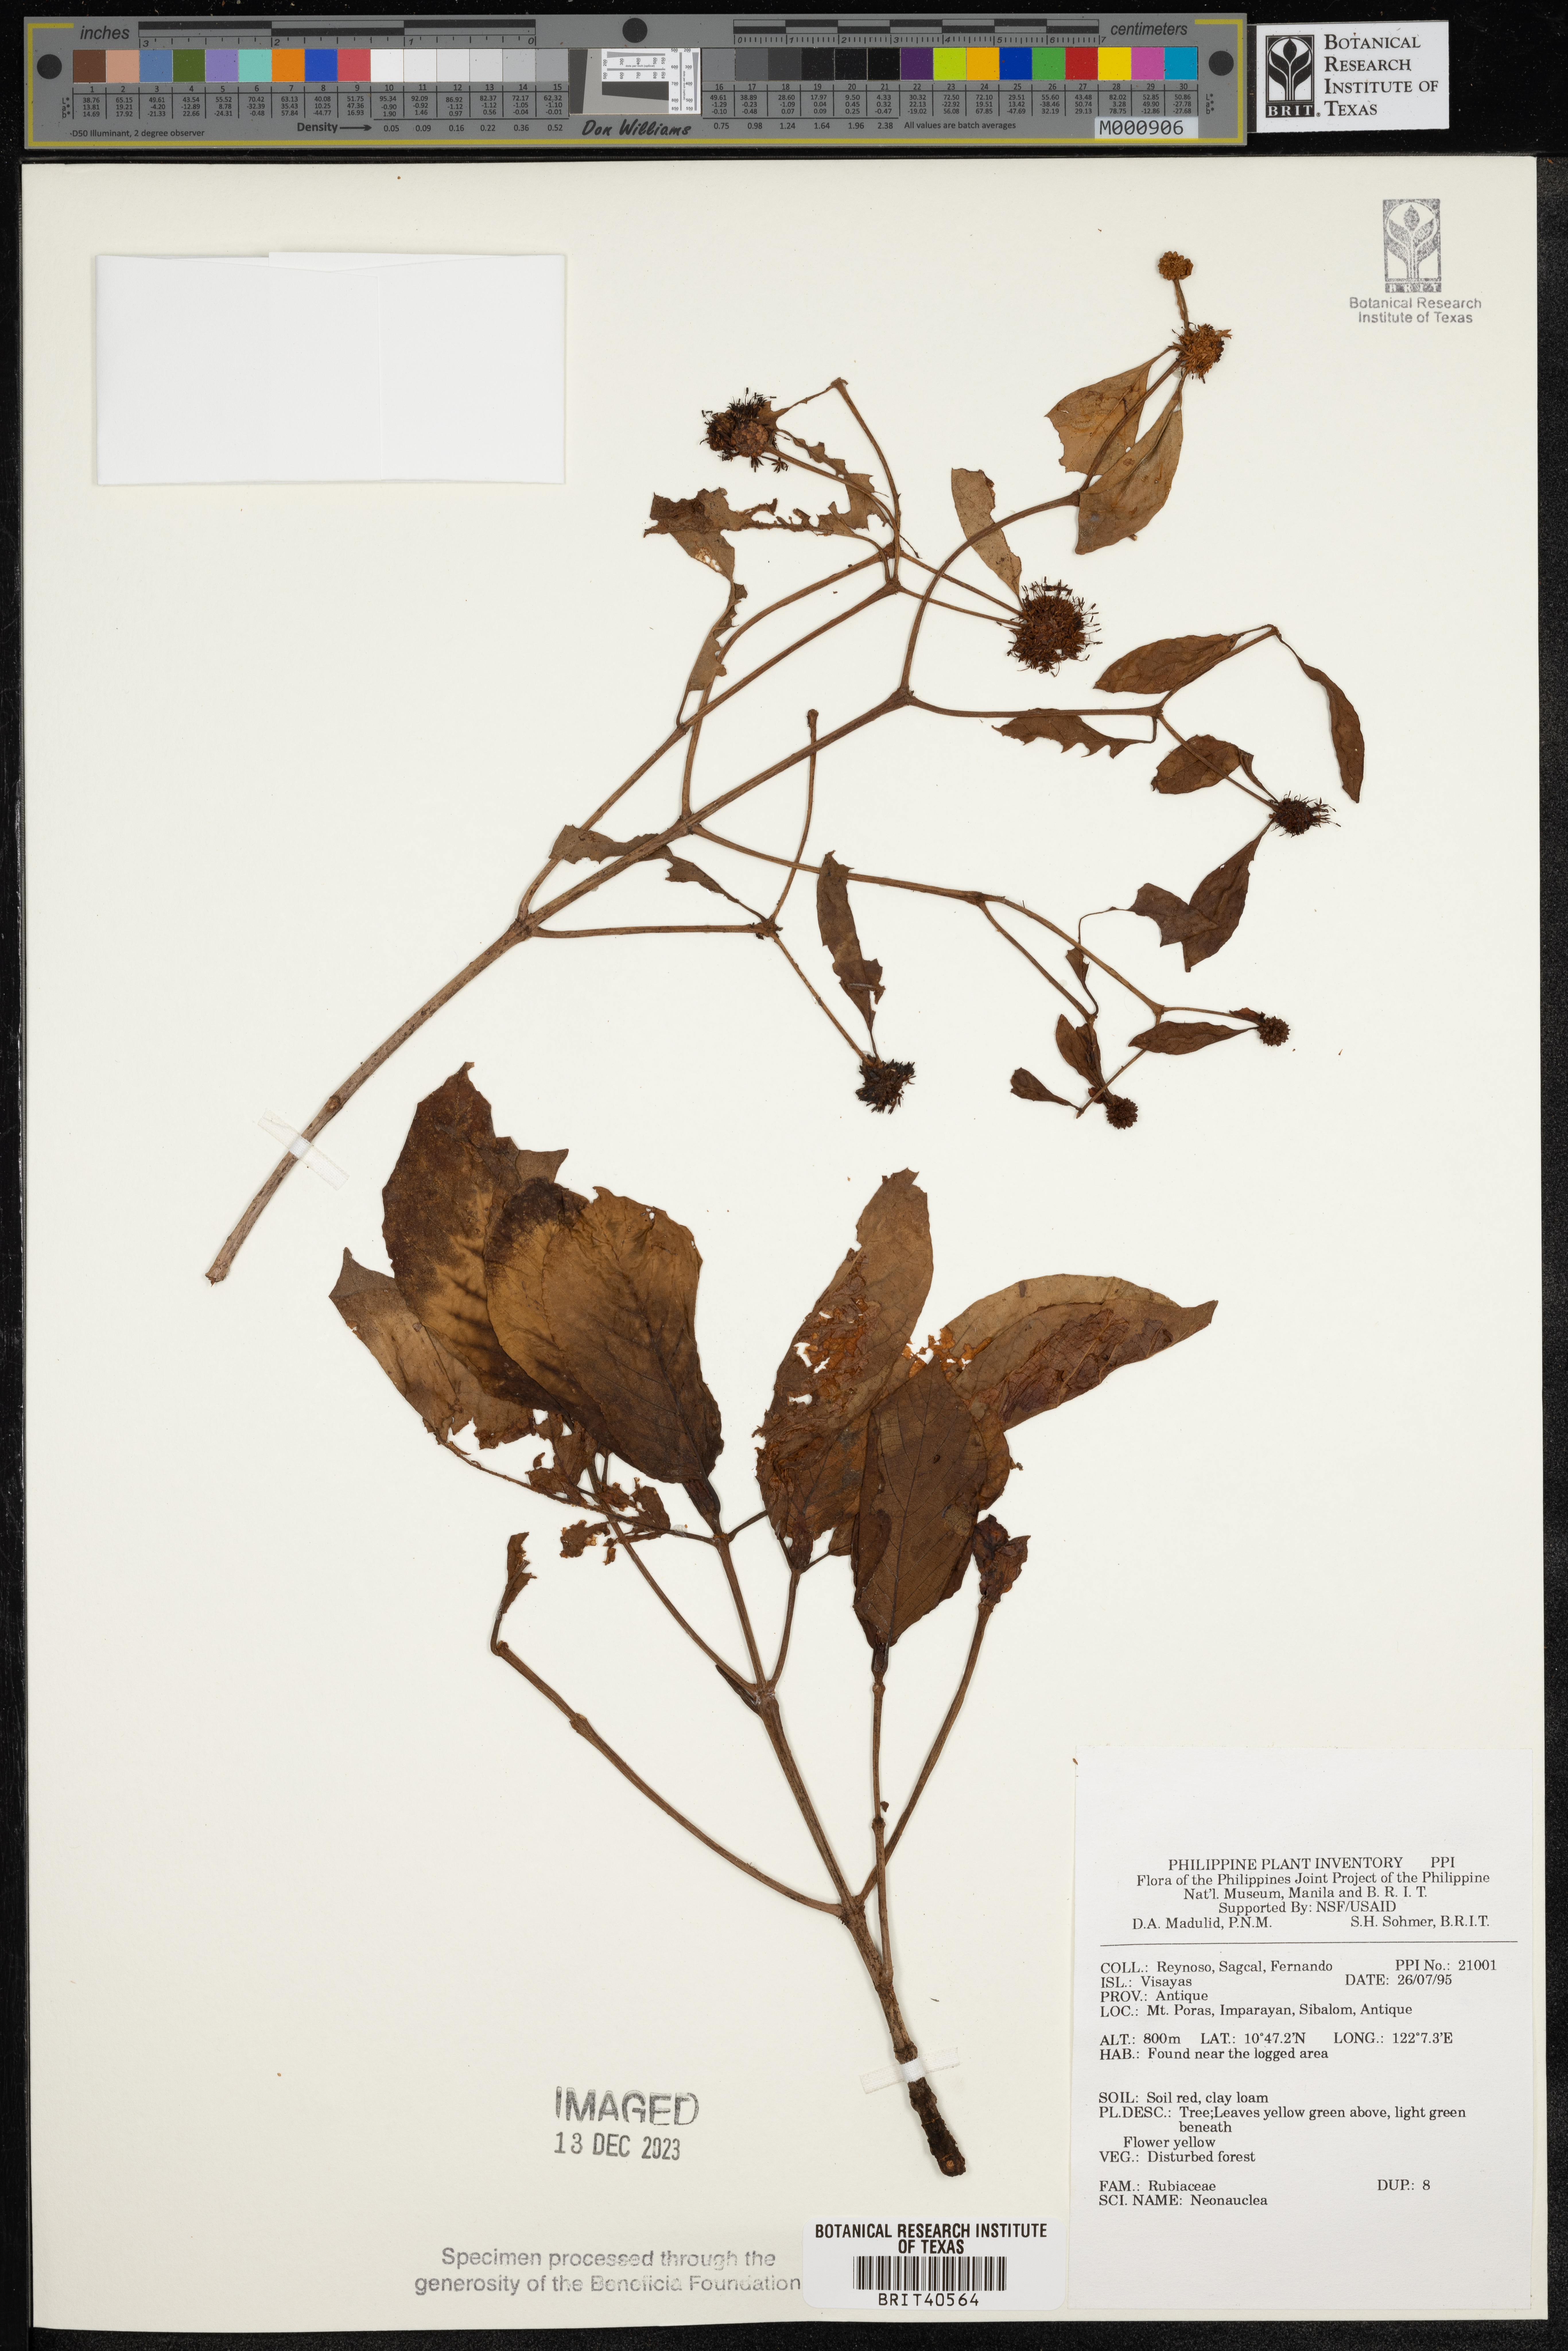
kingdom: Plantae
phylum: Tracheophyta
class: Magnoliopsida
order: Gentianales
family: Rubiaceae
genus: Neonauclea
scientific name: Neonauclea
